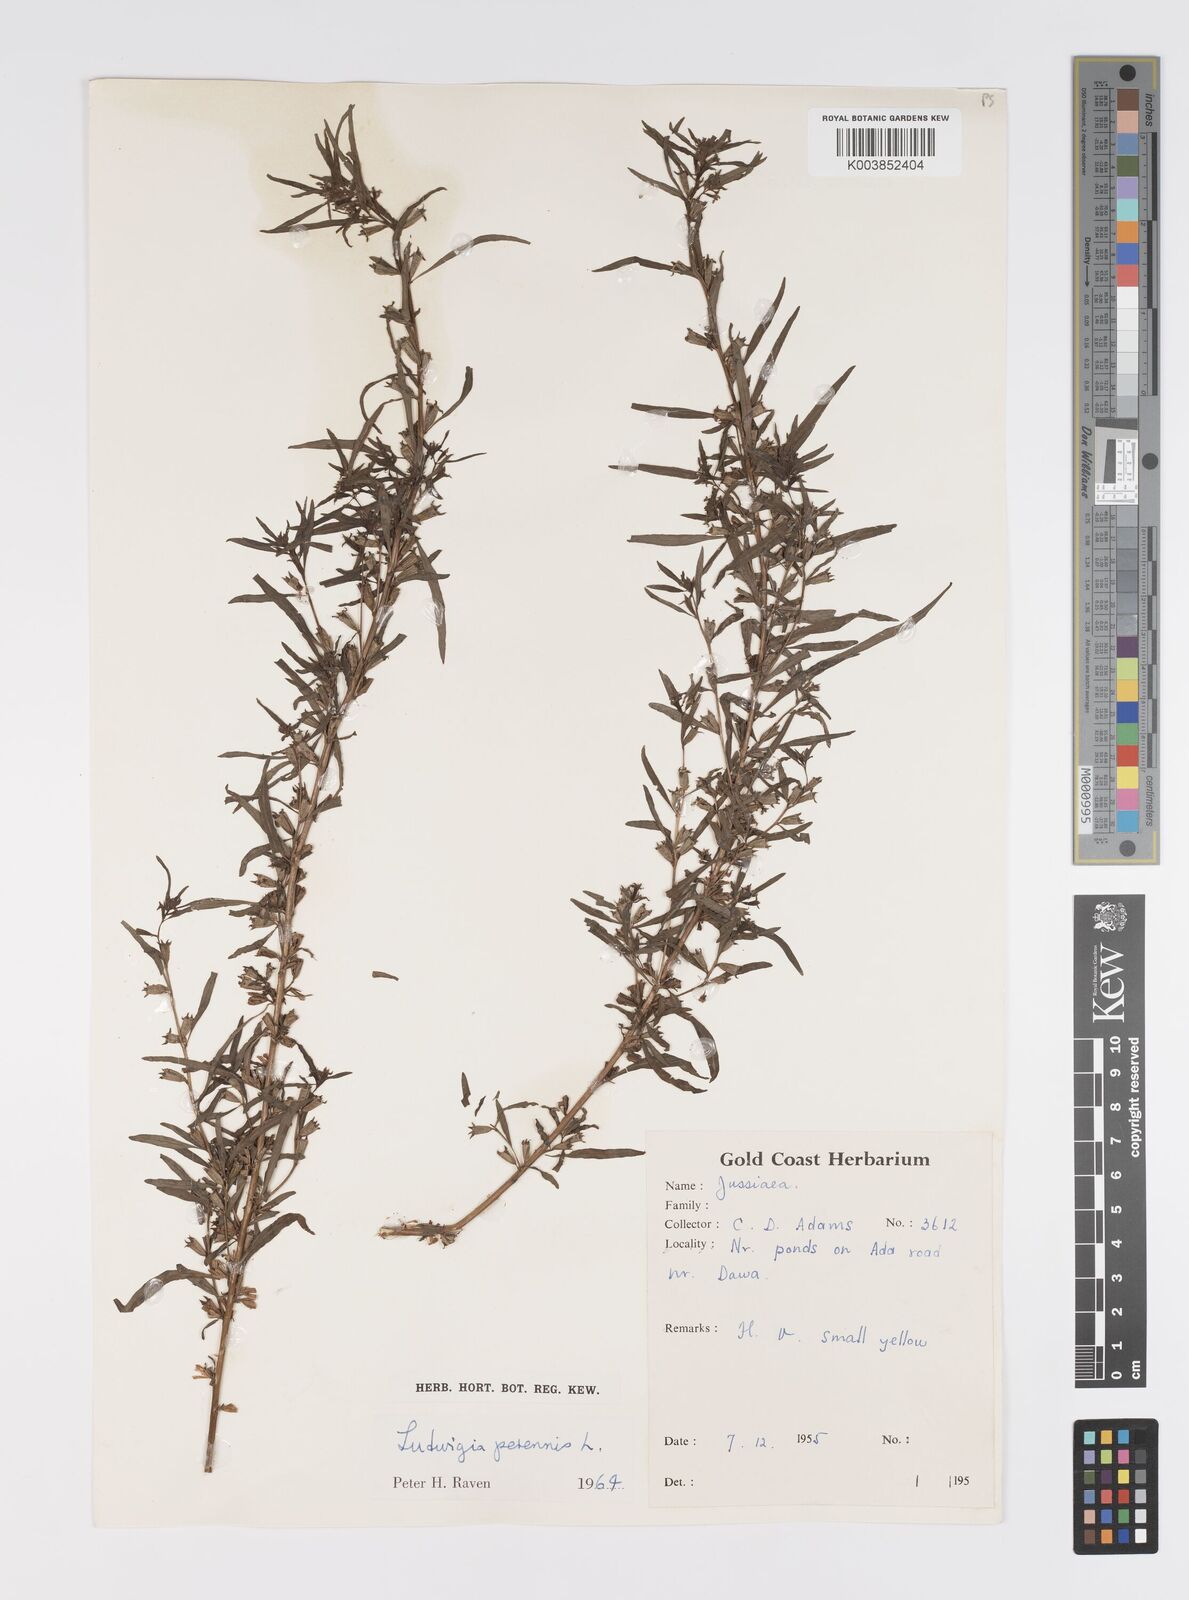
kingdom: Plantae
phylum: Tracheophyta
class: Magnoliopsida
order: Myrtales
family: Onagraceae
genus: Ludwigia
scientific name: Ludwigia perennis
